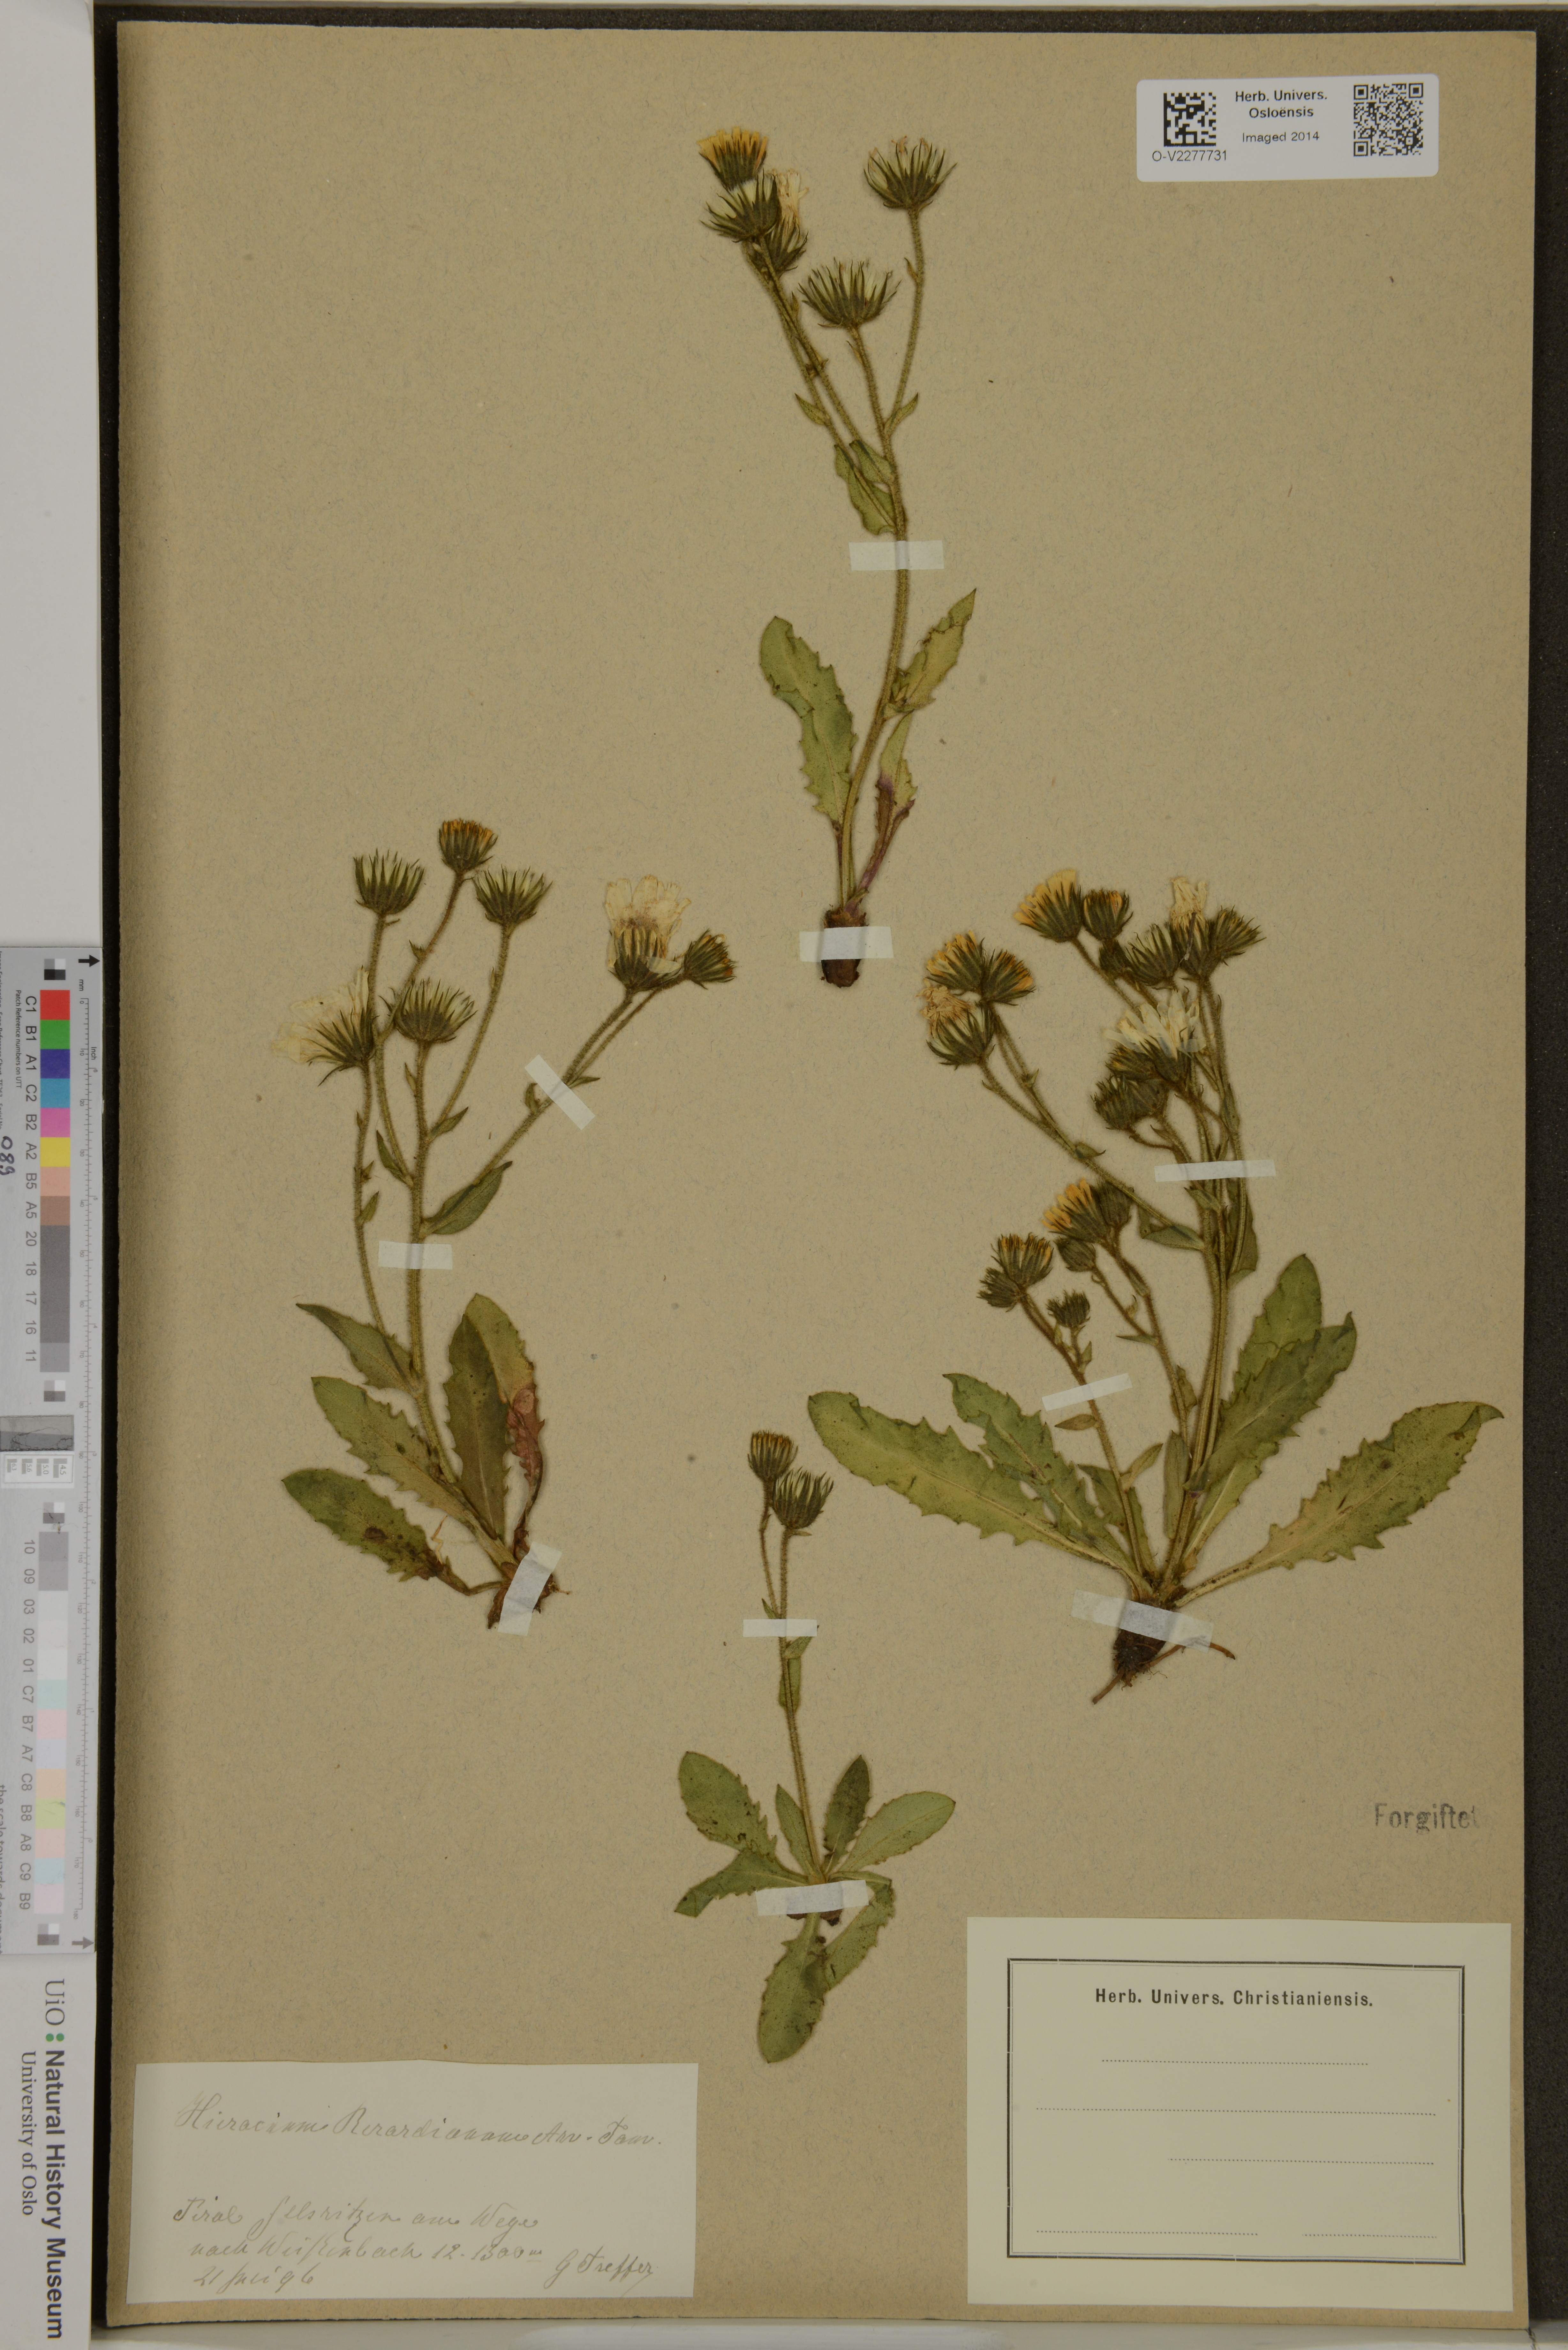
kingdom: Plantae
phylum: Tracheophyta
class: Magnoliopsida
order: Asterales
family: Asteraceae
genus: Hieracium
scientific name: Hieracium amplexicaule
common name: Sticky hawkweed
